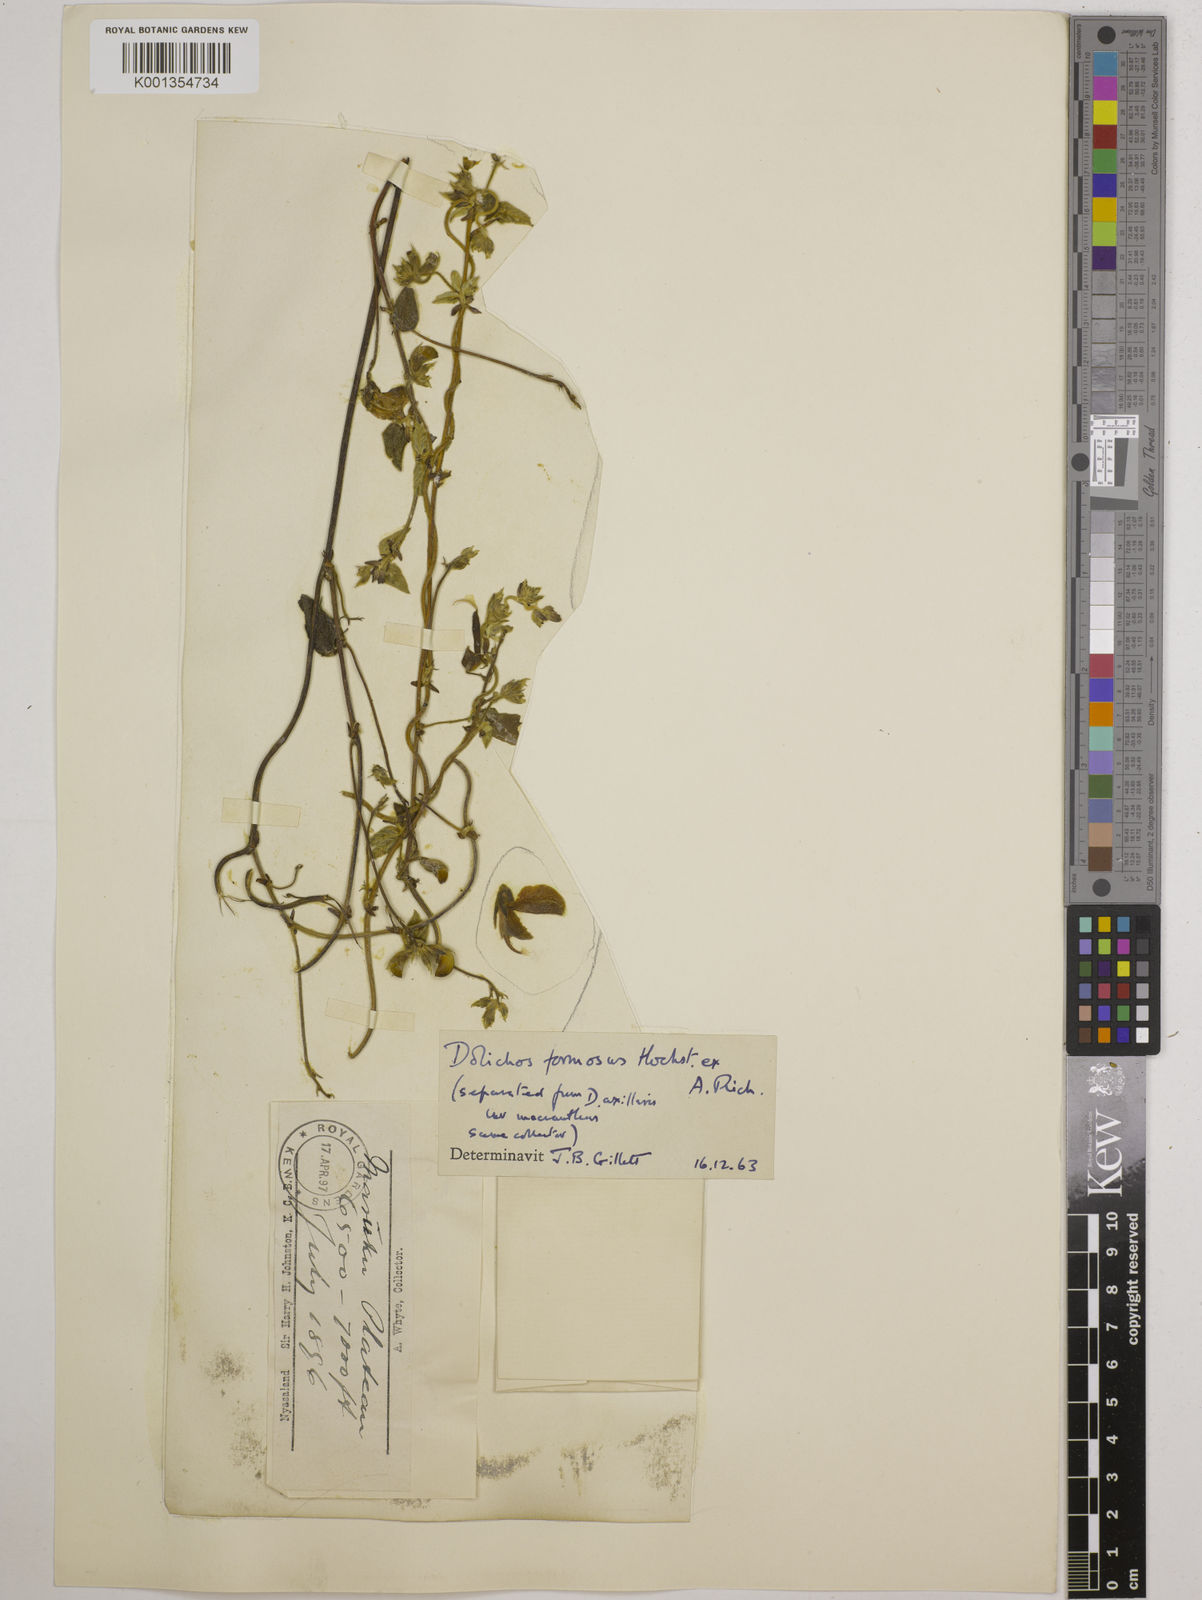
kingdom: Plantae
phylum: Tracheophyta
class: Magnoliopsida
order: Fabales
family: Fabaceae
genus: Dolichos
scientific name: Dolichos
